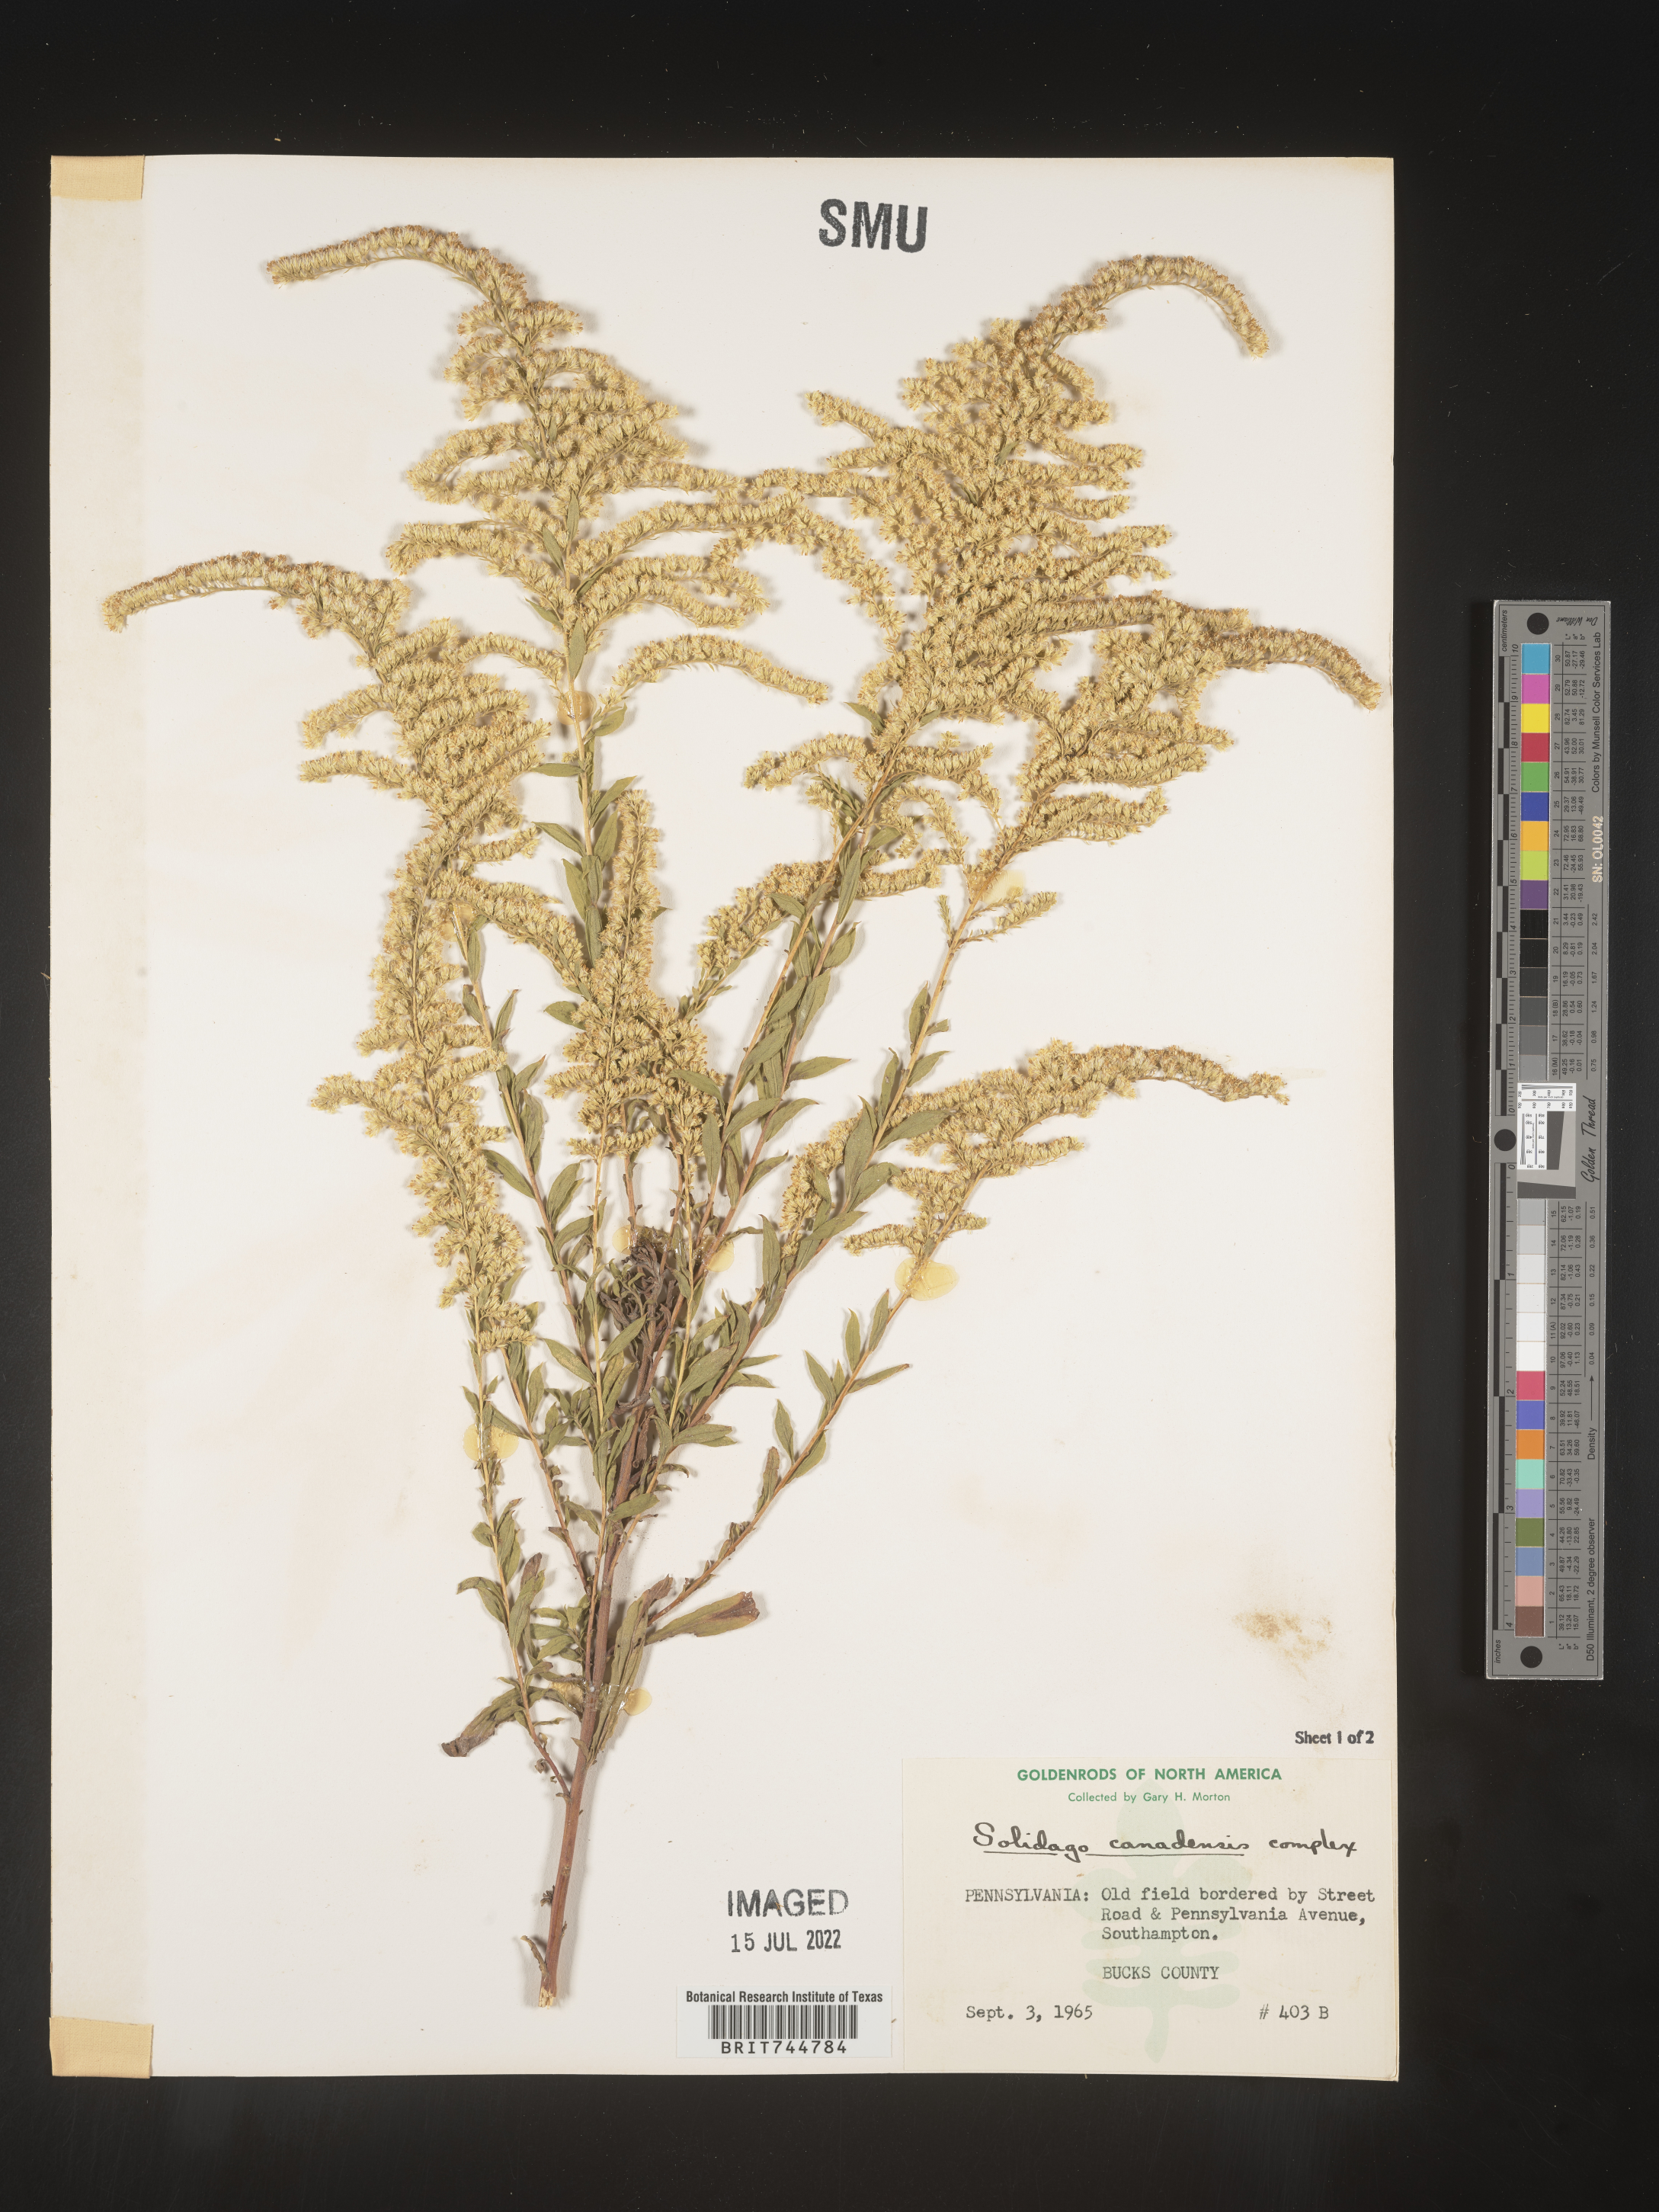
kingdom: Plantae
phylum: Tracheophyta
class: Magnoliopsida
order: Asterales
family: Asteraceae
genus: Solidago
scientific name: Solidago canadensis
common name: Canada goldenrod
